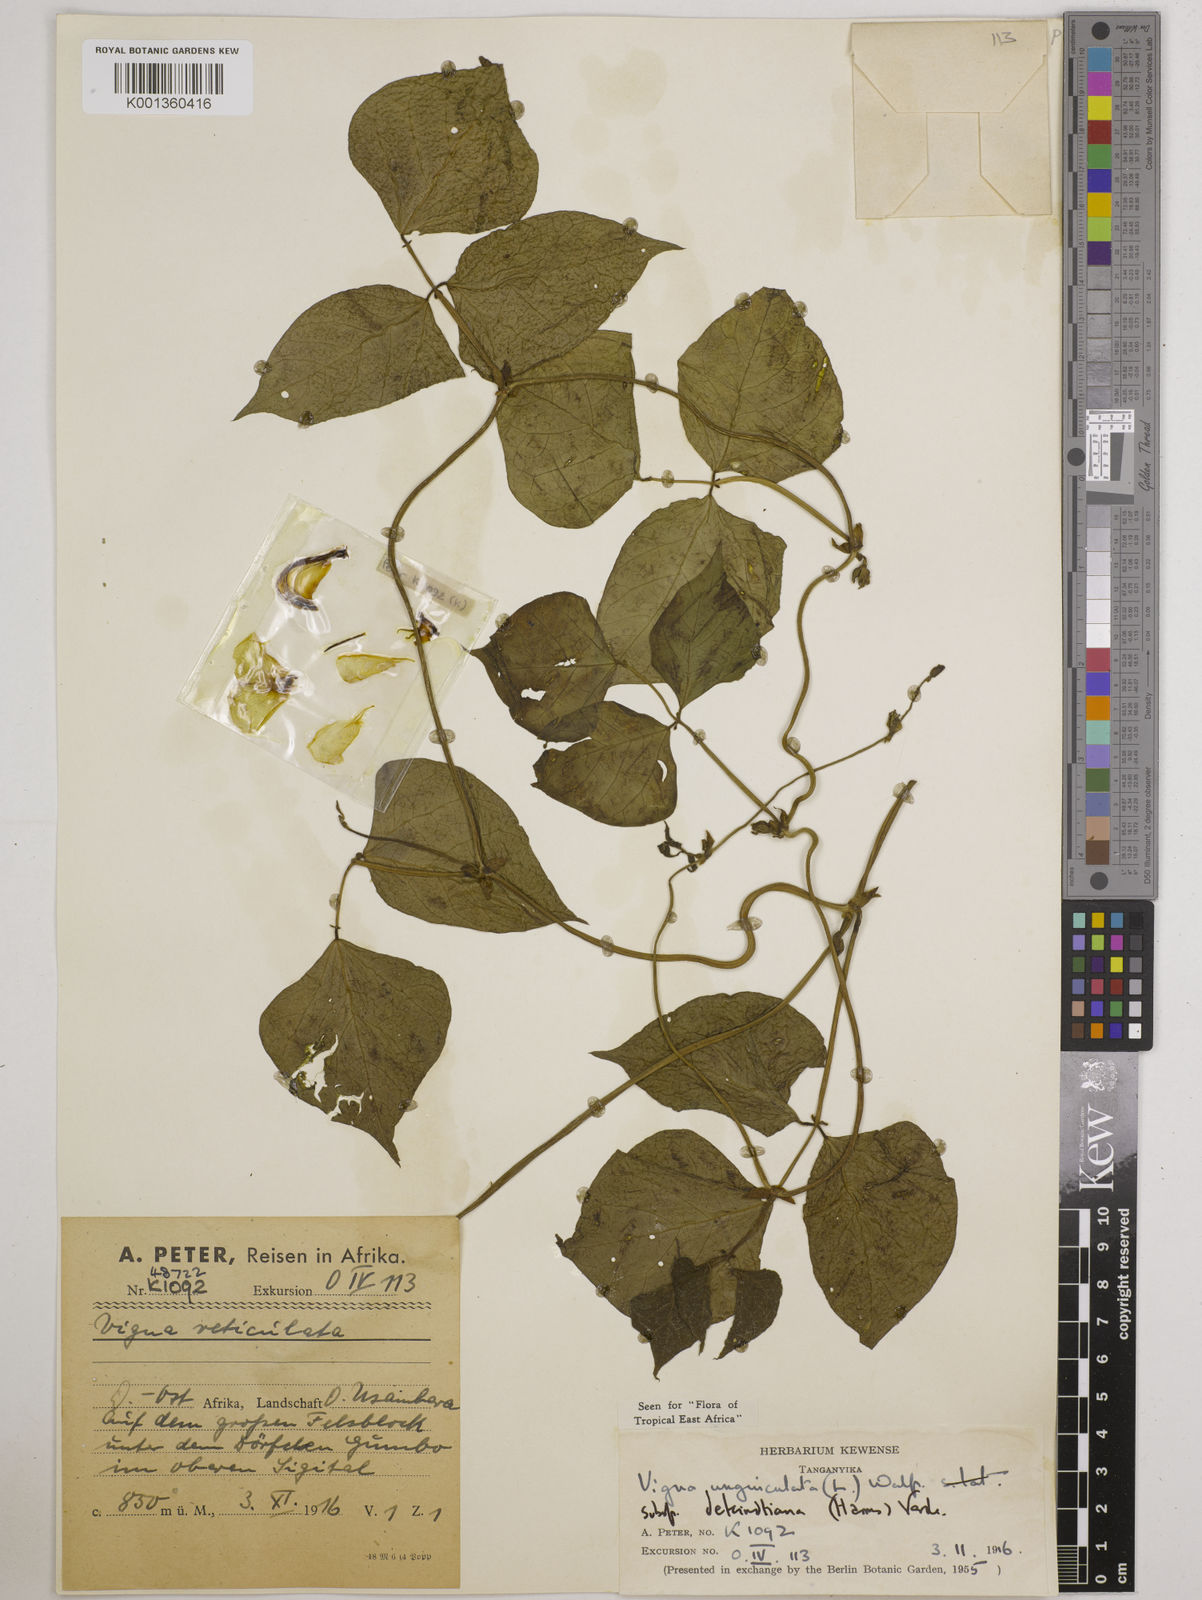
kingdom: Plantae
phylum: Tracheophyta
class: Magnoliopsida
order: Fabales
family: Fabaceae
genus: Vigna
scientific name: Vigna
